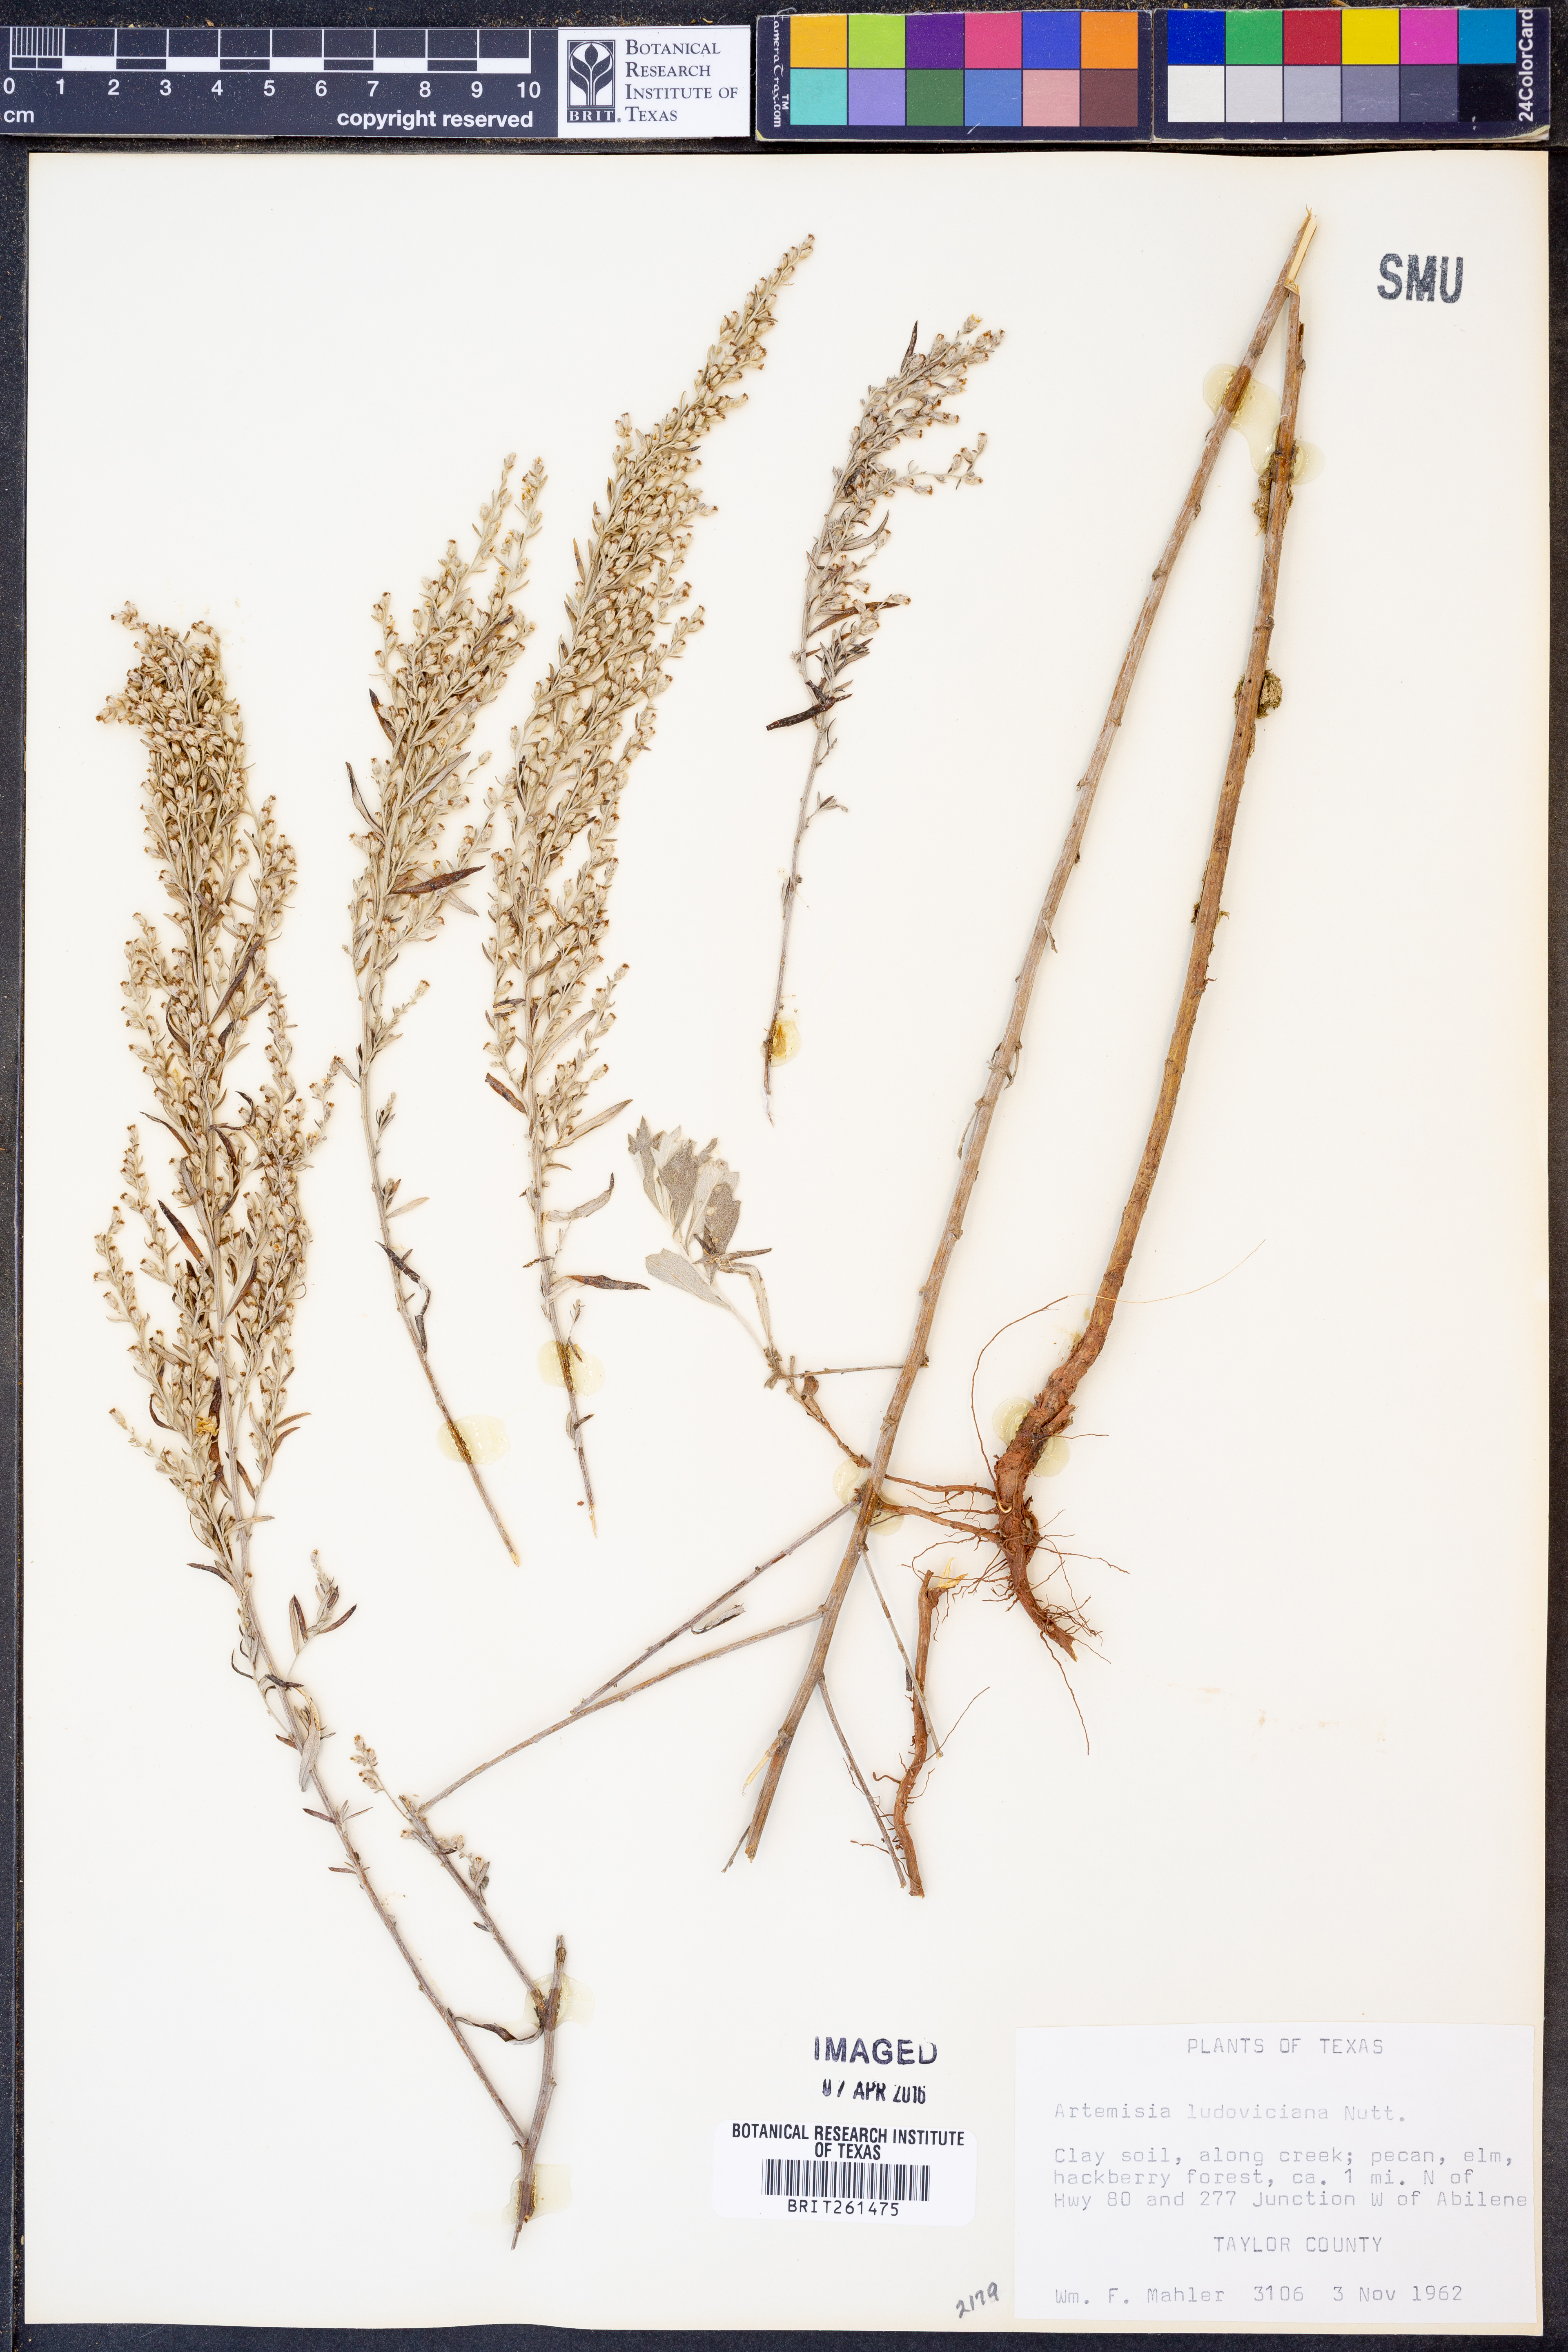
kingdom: Plantae
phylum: Tracheophyta
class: Magnoliopsida
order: Asterales
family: Asteraceae
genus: Artemisia
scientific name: Artemisia ludoviciana
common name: Western mugwort
